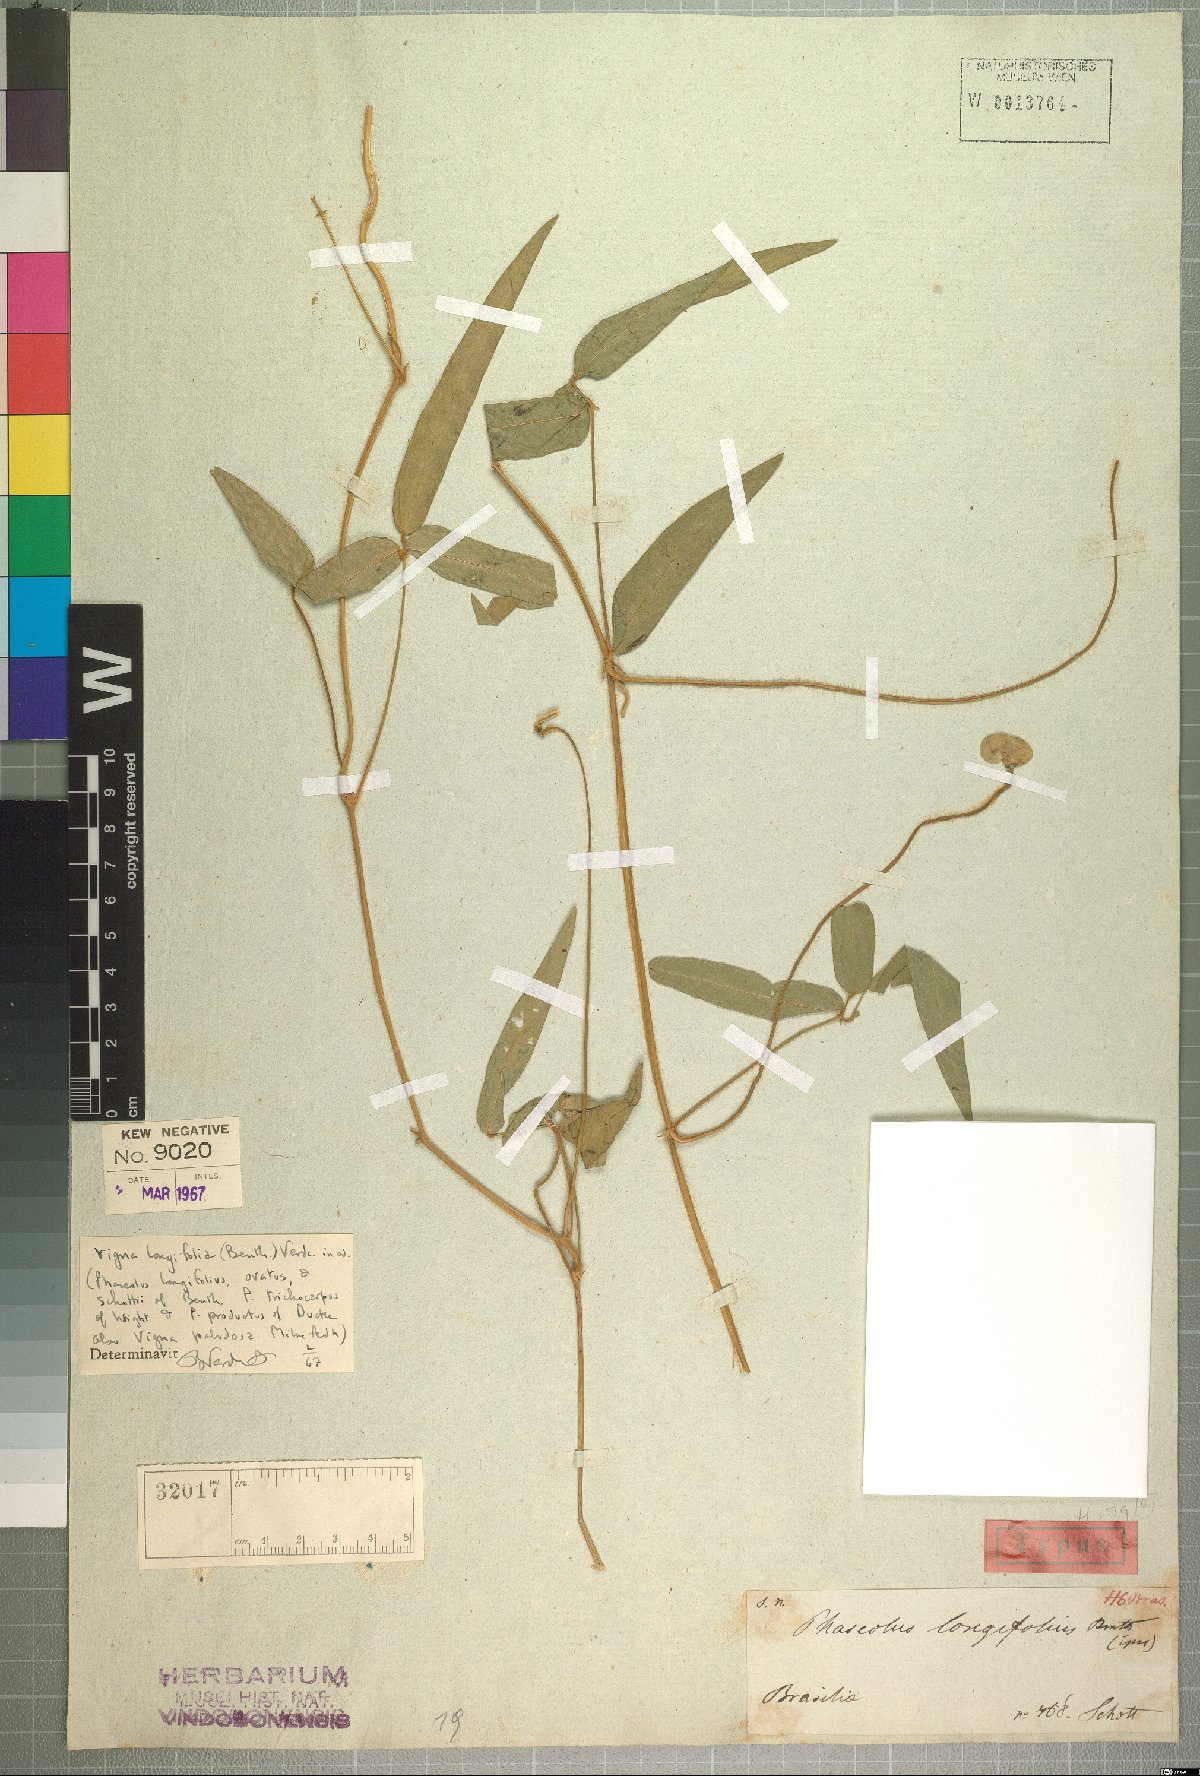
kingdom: Plantae
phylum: Tracheophyta
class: Magnoliopsida
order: Fabales
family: Fabaceae
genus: Vigna
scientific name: Vigna longifolia
